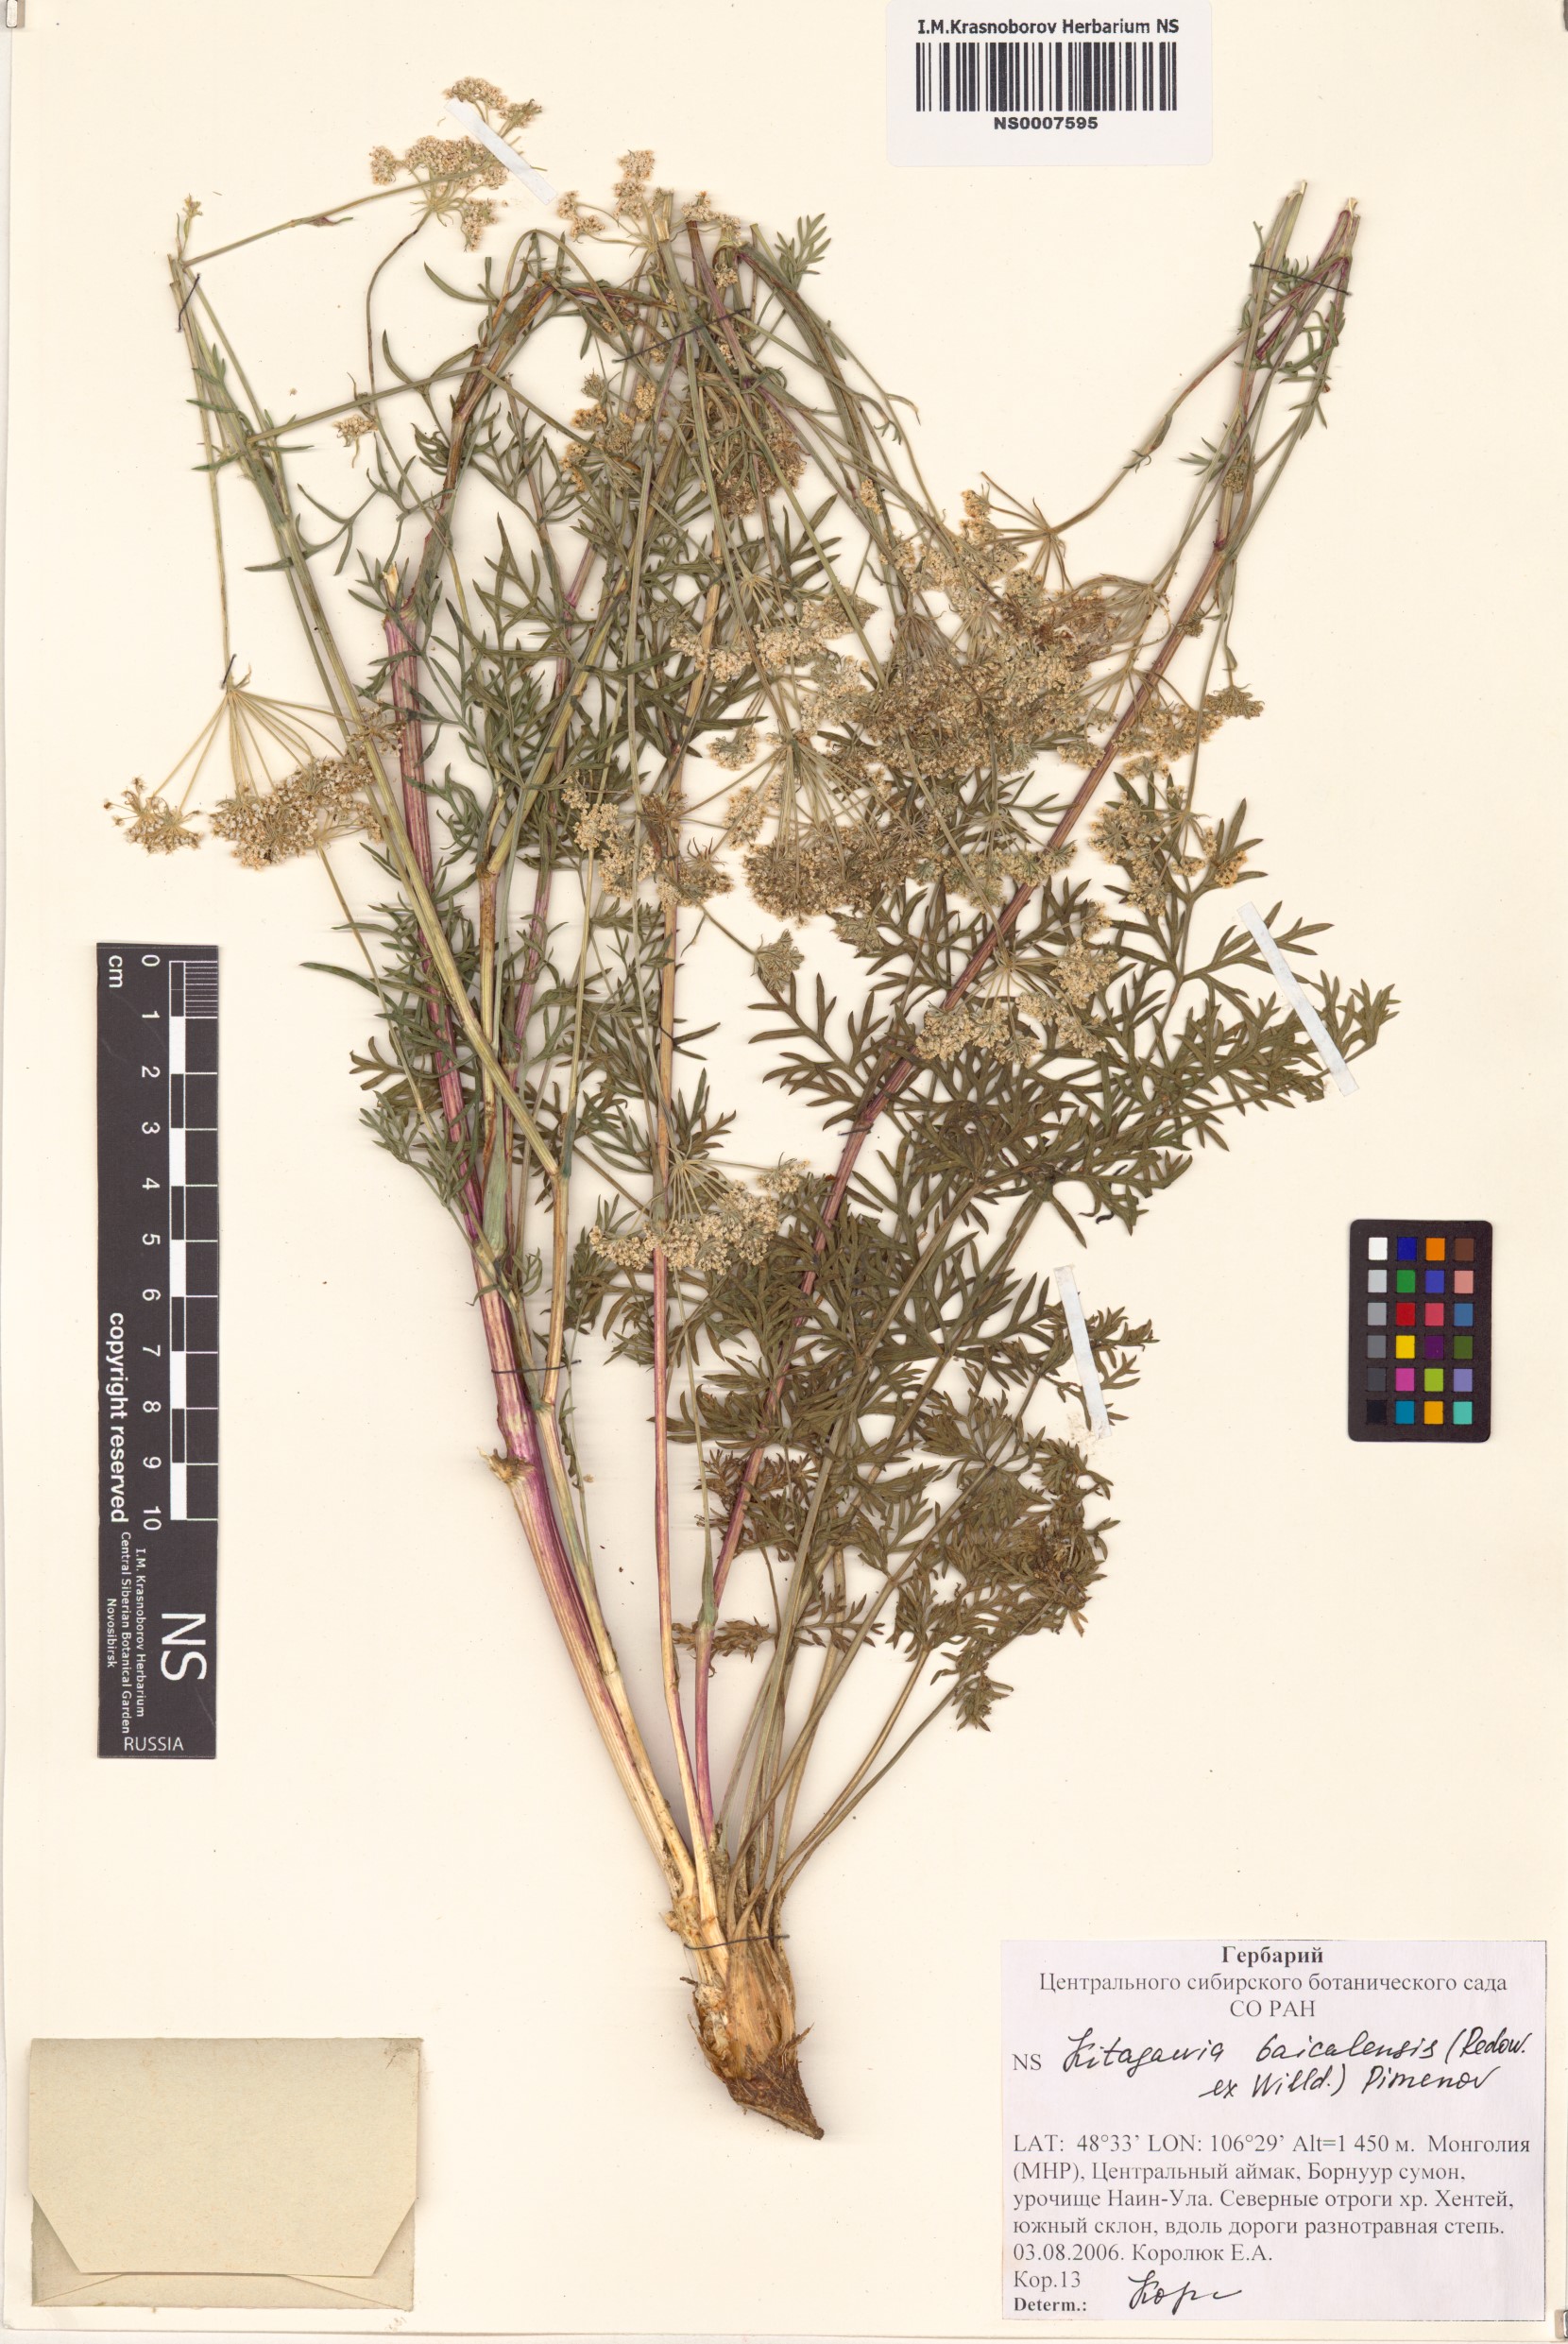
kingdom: Plantae
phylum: Tracheophyta
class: Magnoliopsida
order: Apiales
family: Apiaceae
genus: Kitagawia
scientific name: Kitagawia baicalensis
